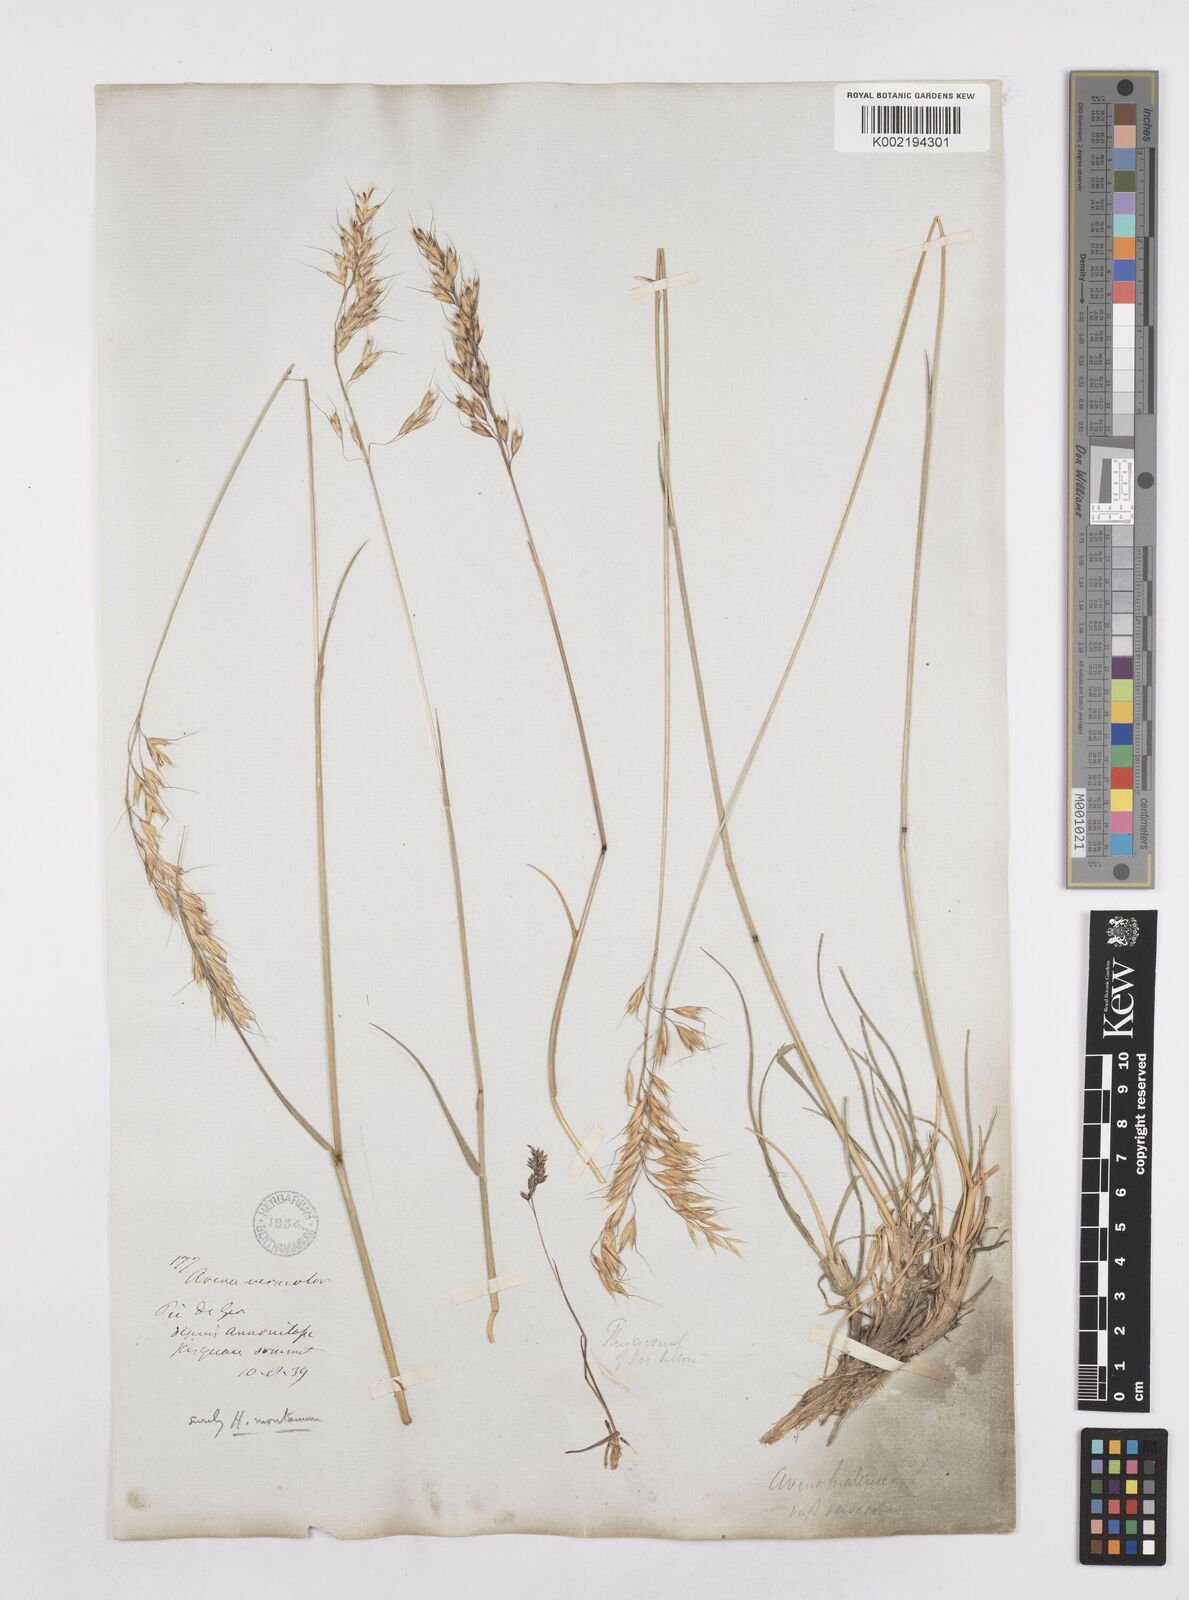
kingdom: Plantae
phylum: Tracheophyta
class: Liliopsida
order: Poales
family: Poaceae
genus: Helictotrichon
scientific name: Helictotrichon sedenense
